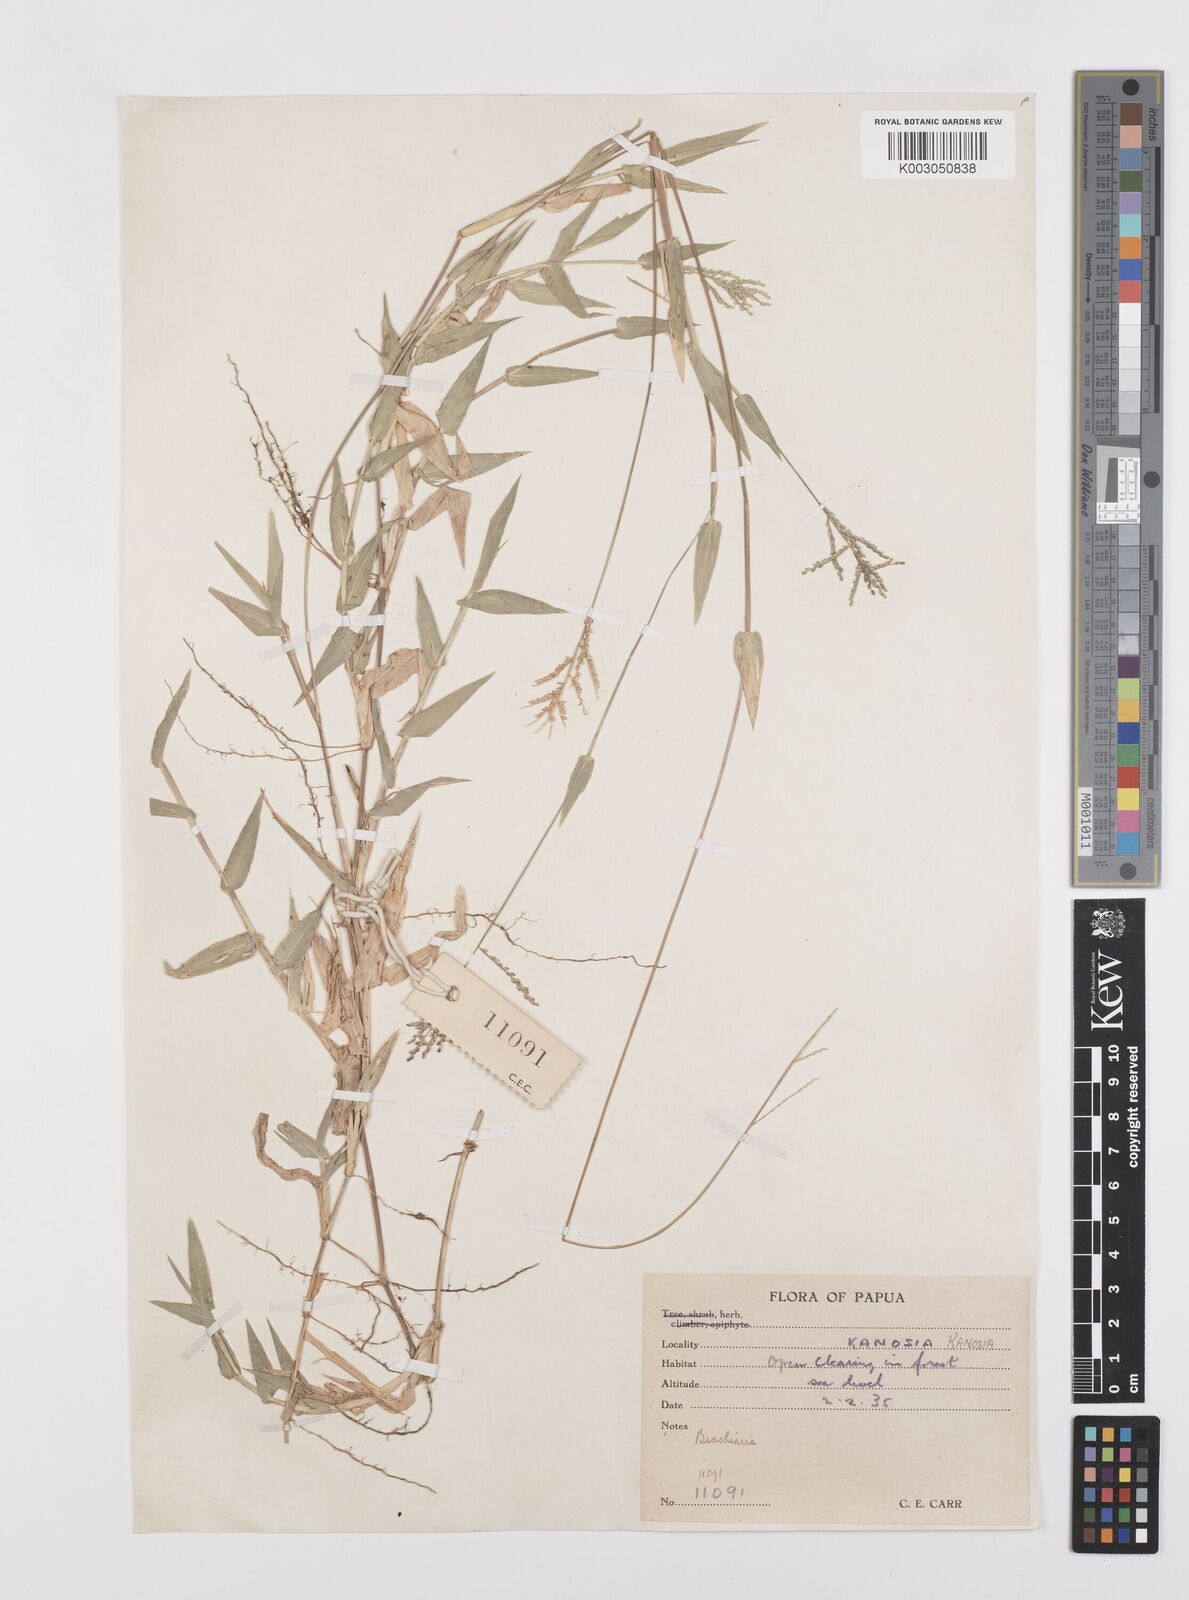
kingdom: Plantae
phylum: Tracheophyta
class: Liliopsida
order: Poales
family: Poaceae
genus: Urochloa
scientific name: Urochloa reptans
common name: Sprawling signalgrass
